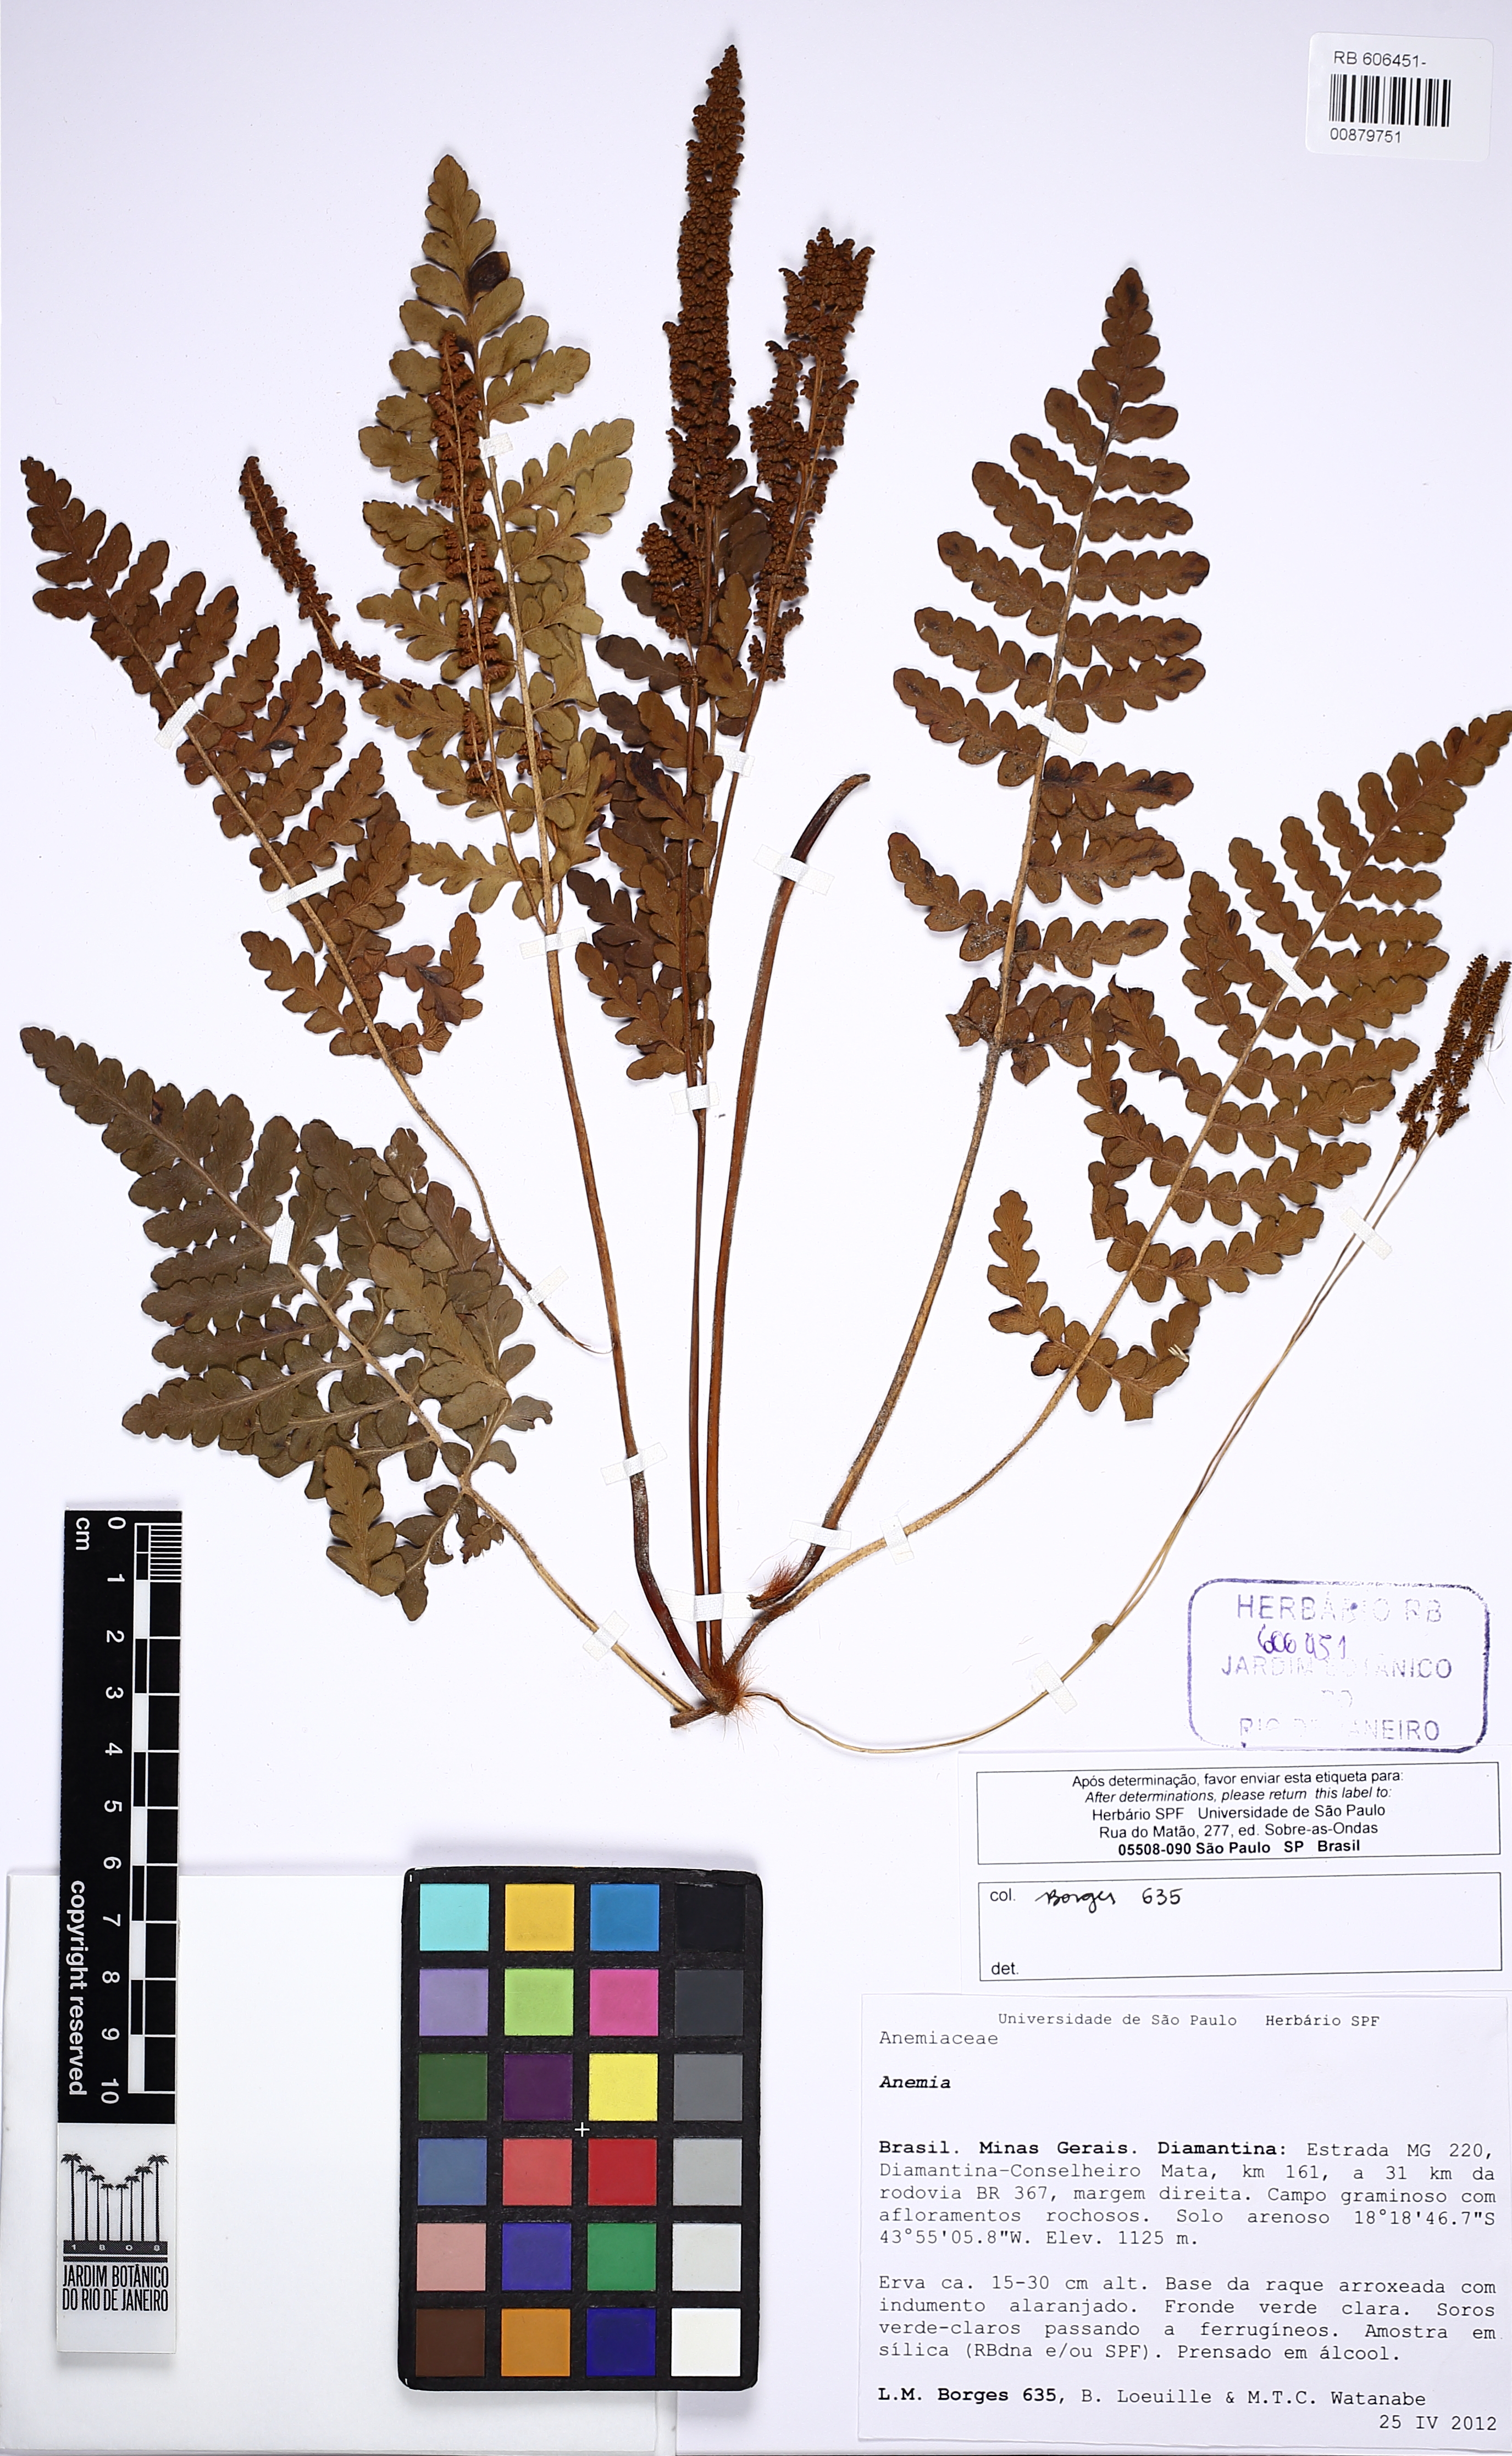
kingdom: Plantae
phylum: Tracheophyta
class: Polypodiopsida
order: Schizaeales
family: Anemiaceae
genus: Anemia
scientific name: Anemia imbricata
